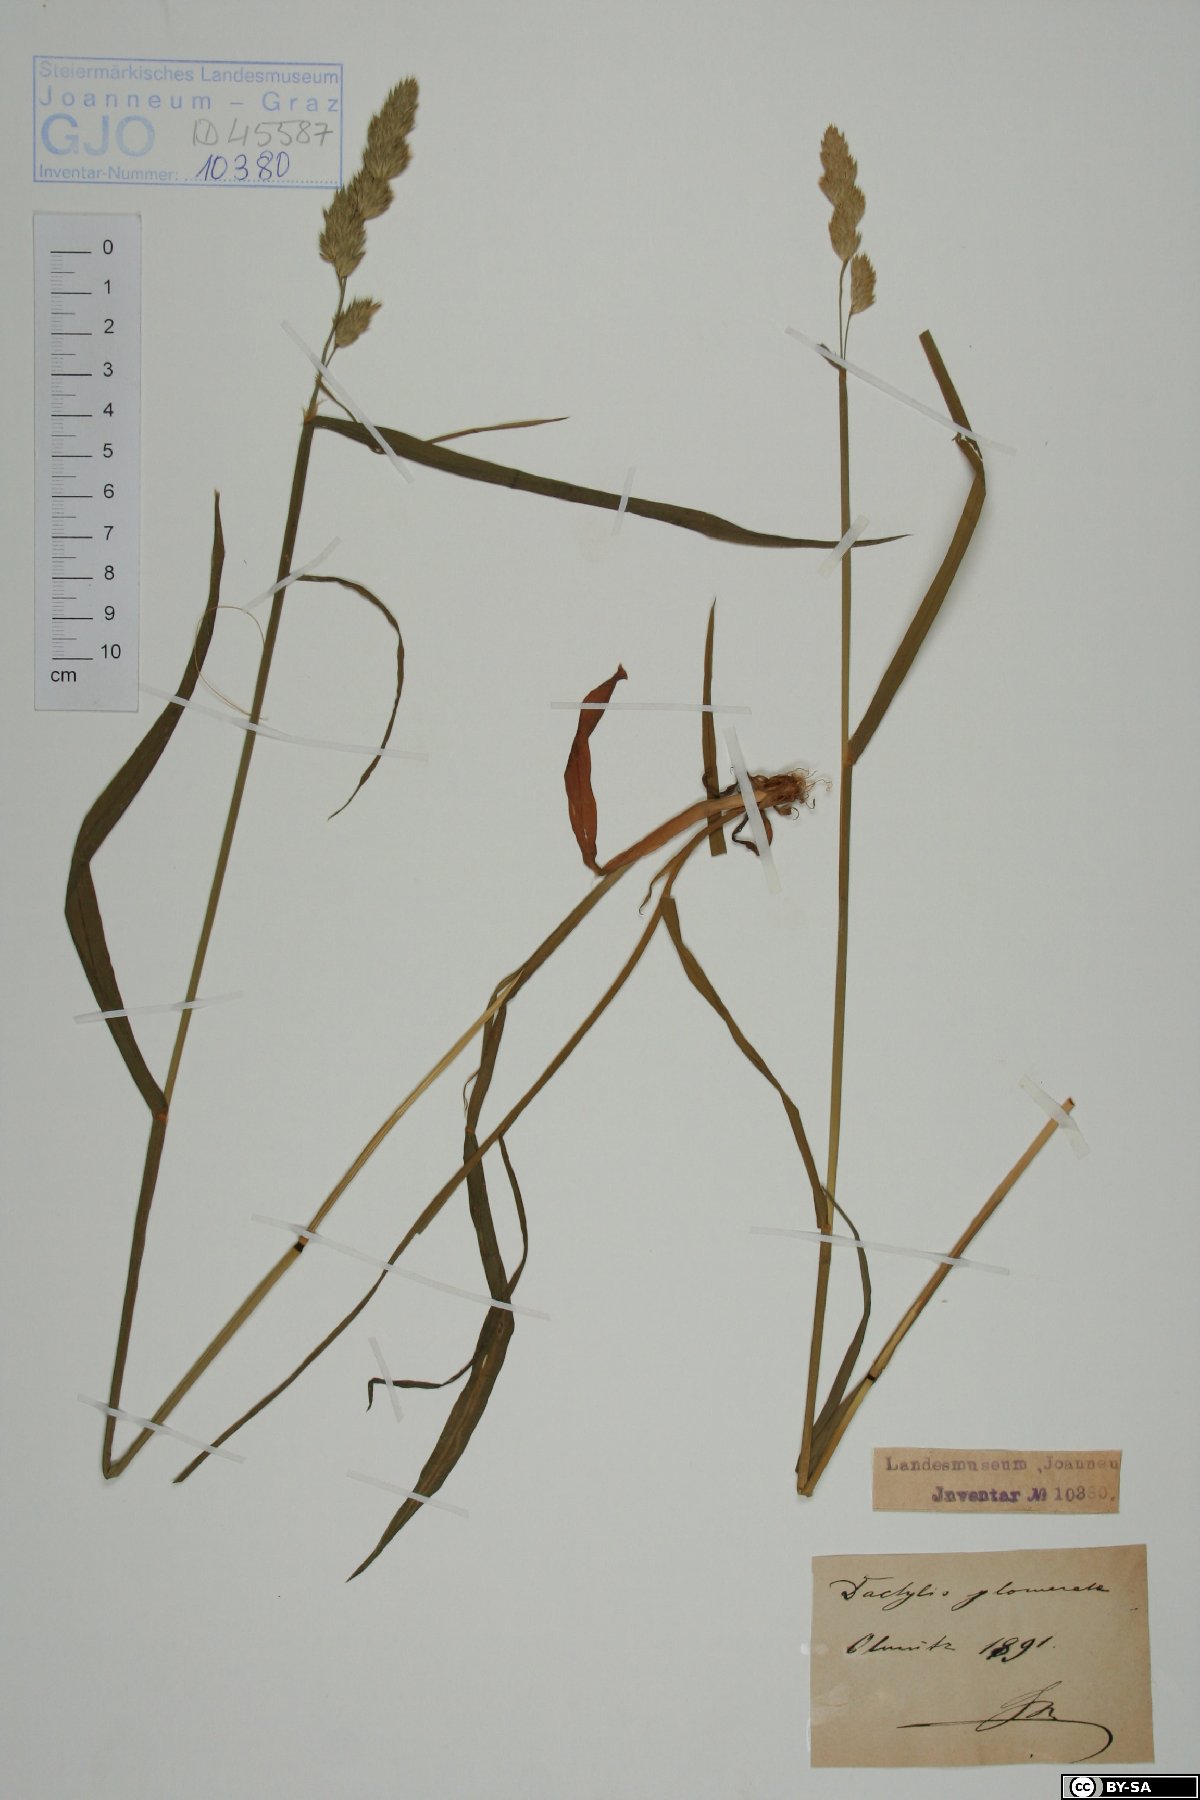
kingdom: Plantae
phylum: Tracheophyta
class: Liliopsida
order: Poales
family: Poaceae
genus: Dactylis
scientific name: Dactylis glomerata
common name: Orchardgrass
